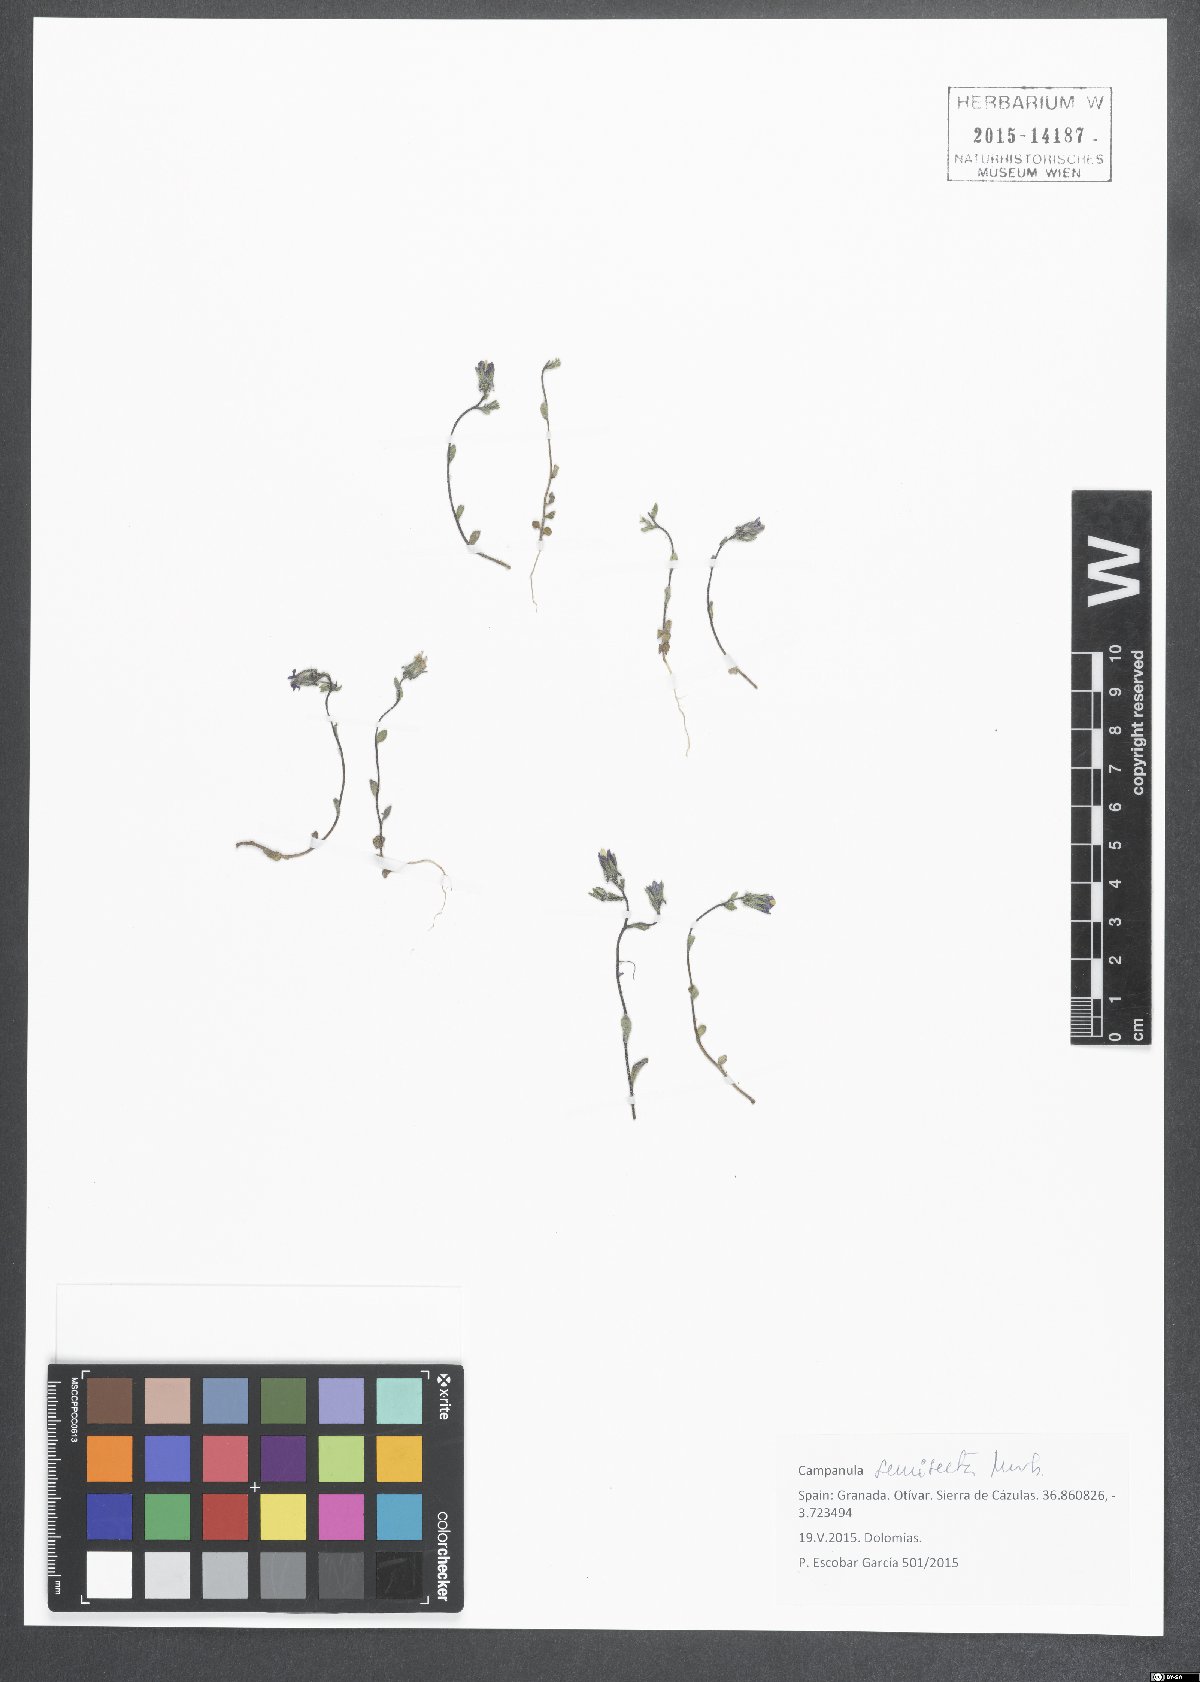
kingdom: Plantae
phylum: Tracheophyta
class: Magnoliopsida
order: Asterales
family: Campanulaceae
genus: Campanula
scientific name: Campanula semisecta
